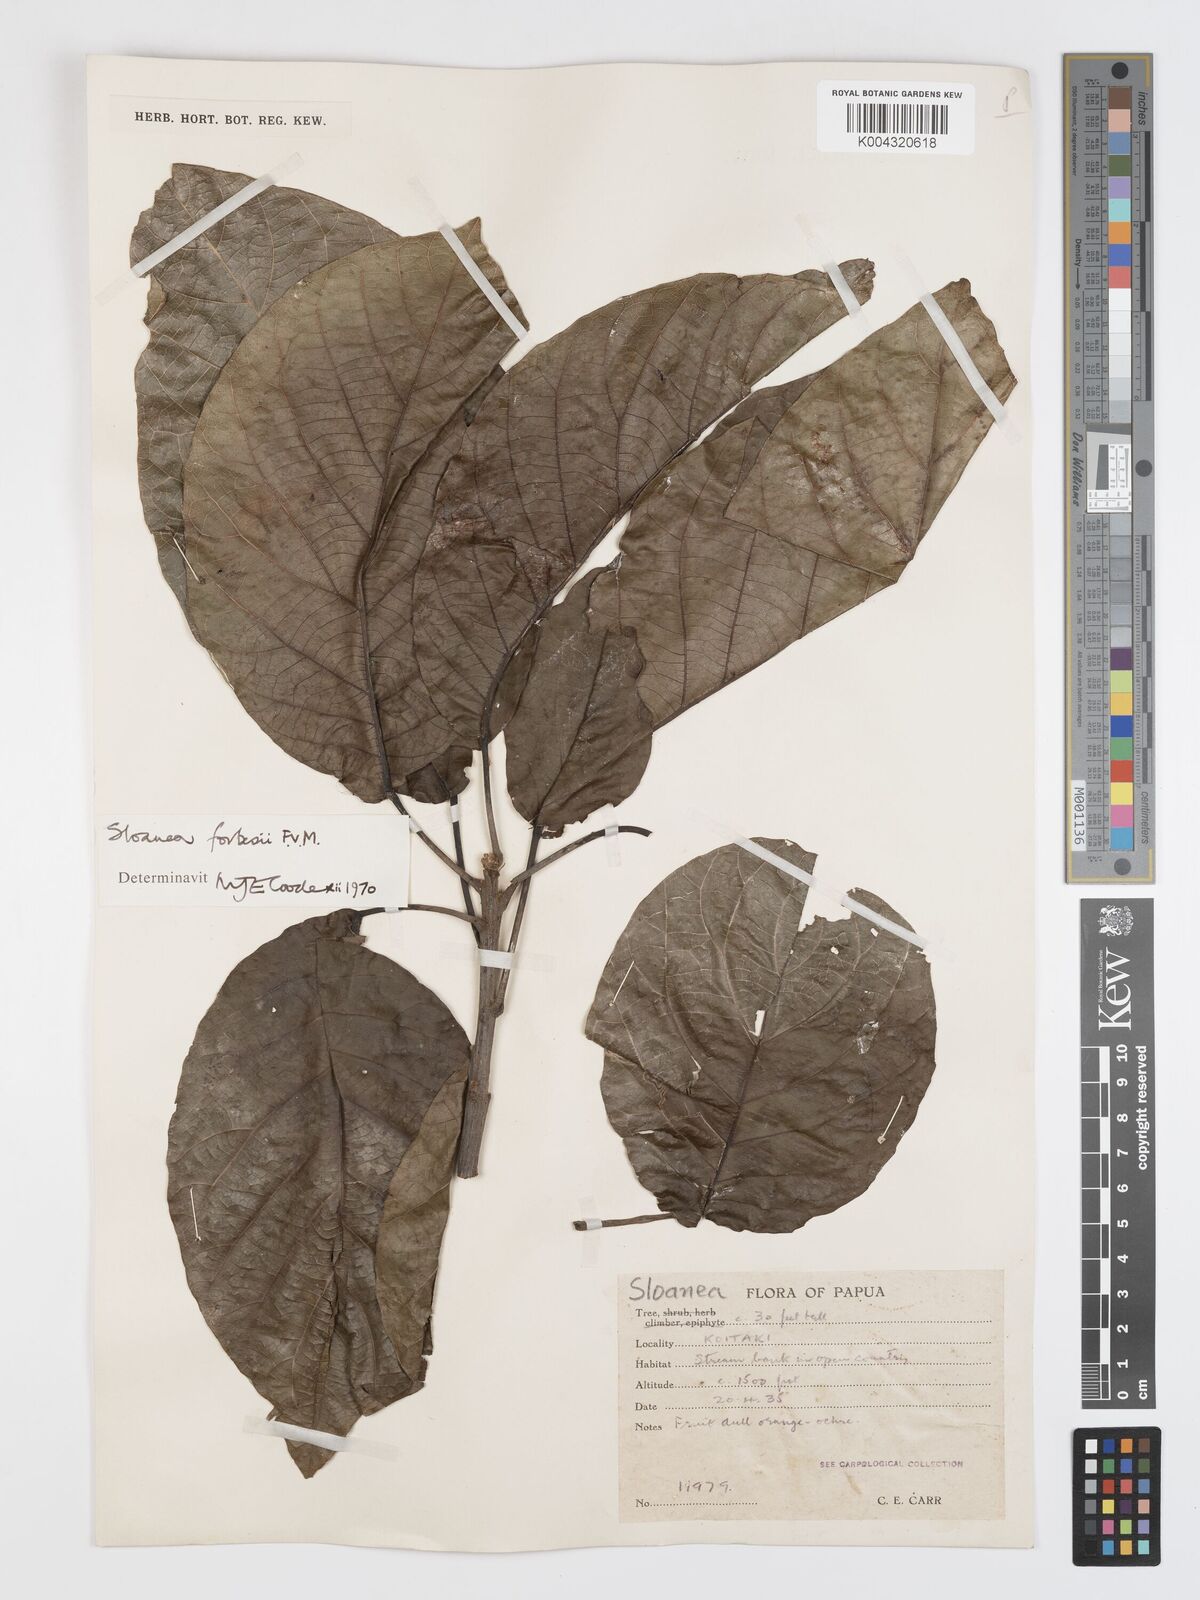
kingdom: Plantae
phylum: Tracheophyta
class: Magnoliopsida
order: Oxalidales
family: Elaeocarpaceae
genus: Sloanea
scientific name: Sloanea forbesii
